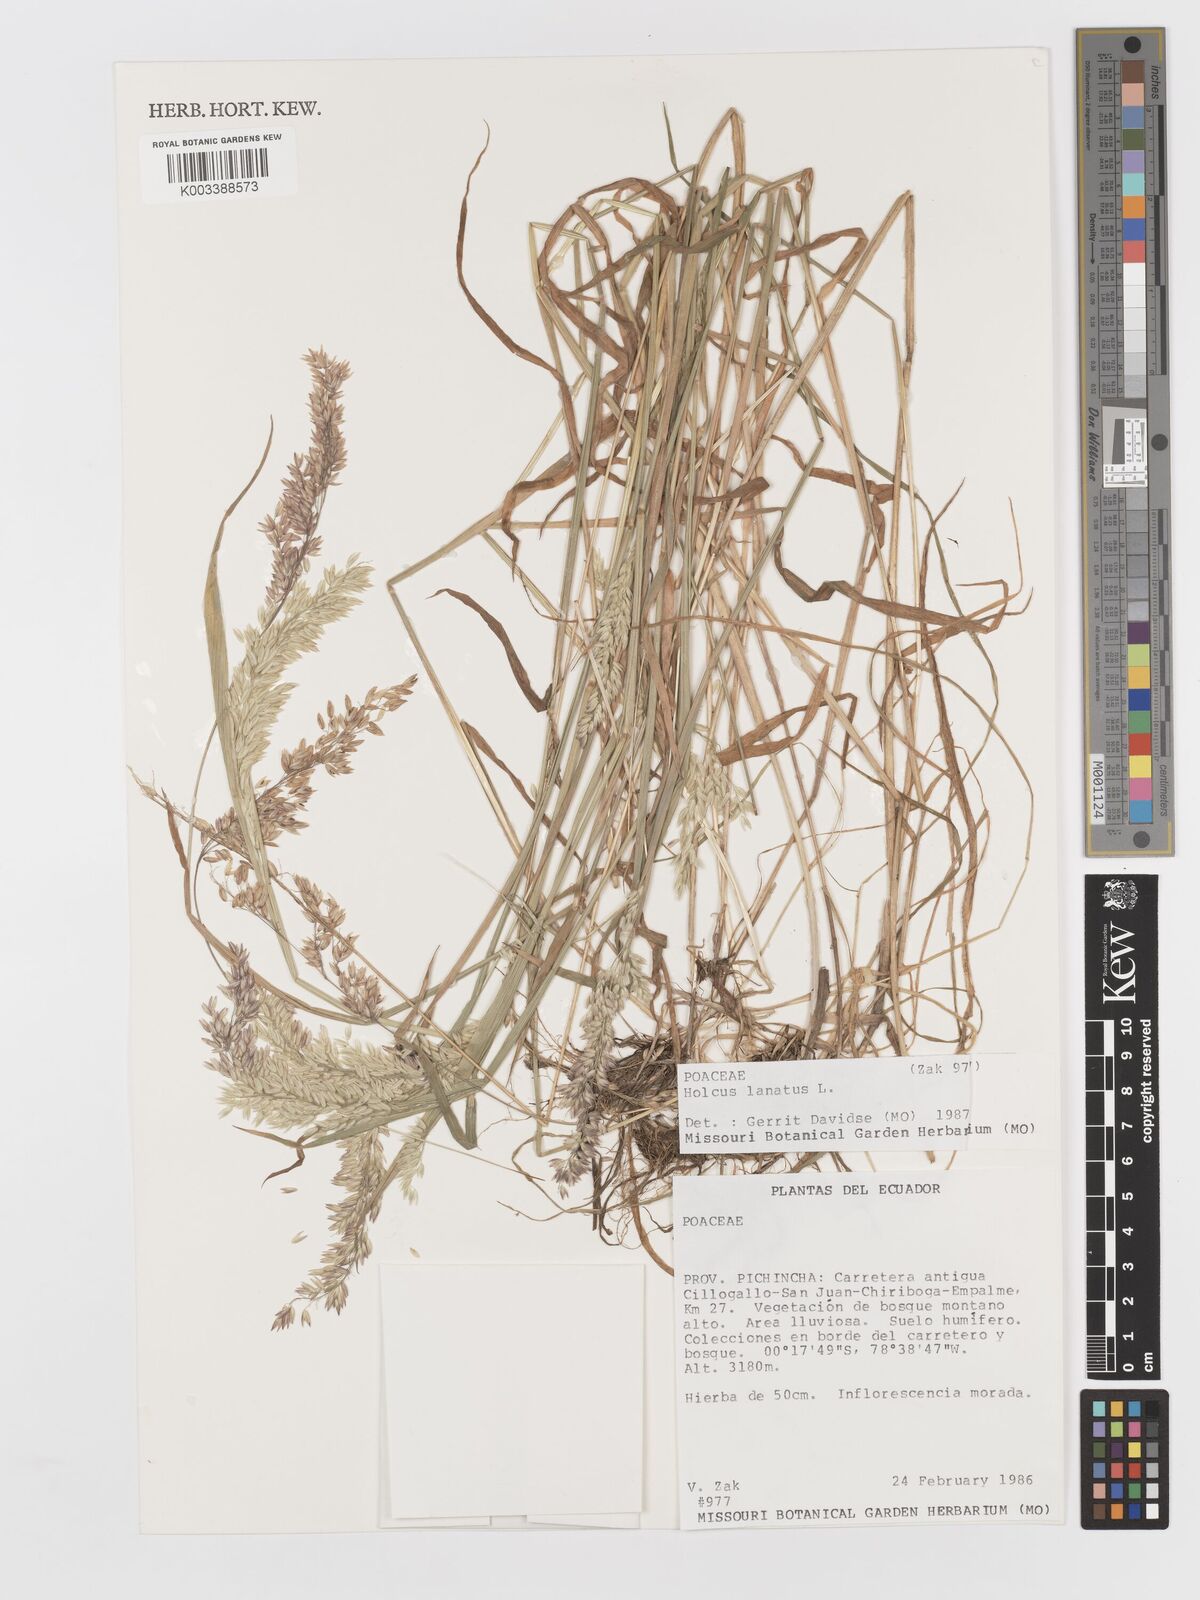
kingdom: Plantae
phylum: Tracheophyta
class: Liliopsida
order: Poales
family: Poaceae
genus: Holcus
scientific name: Holcus lanatus
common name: Yorkshire-fog
